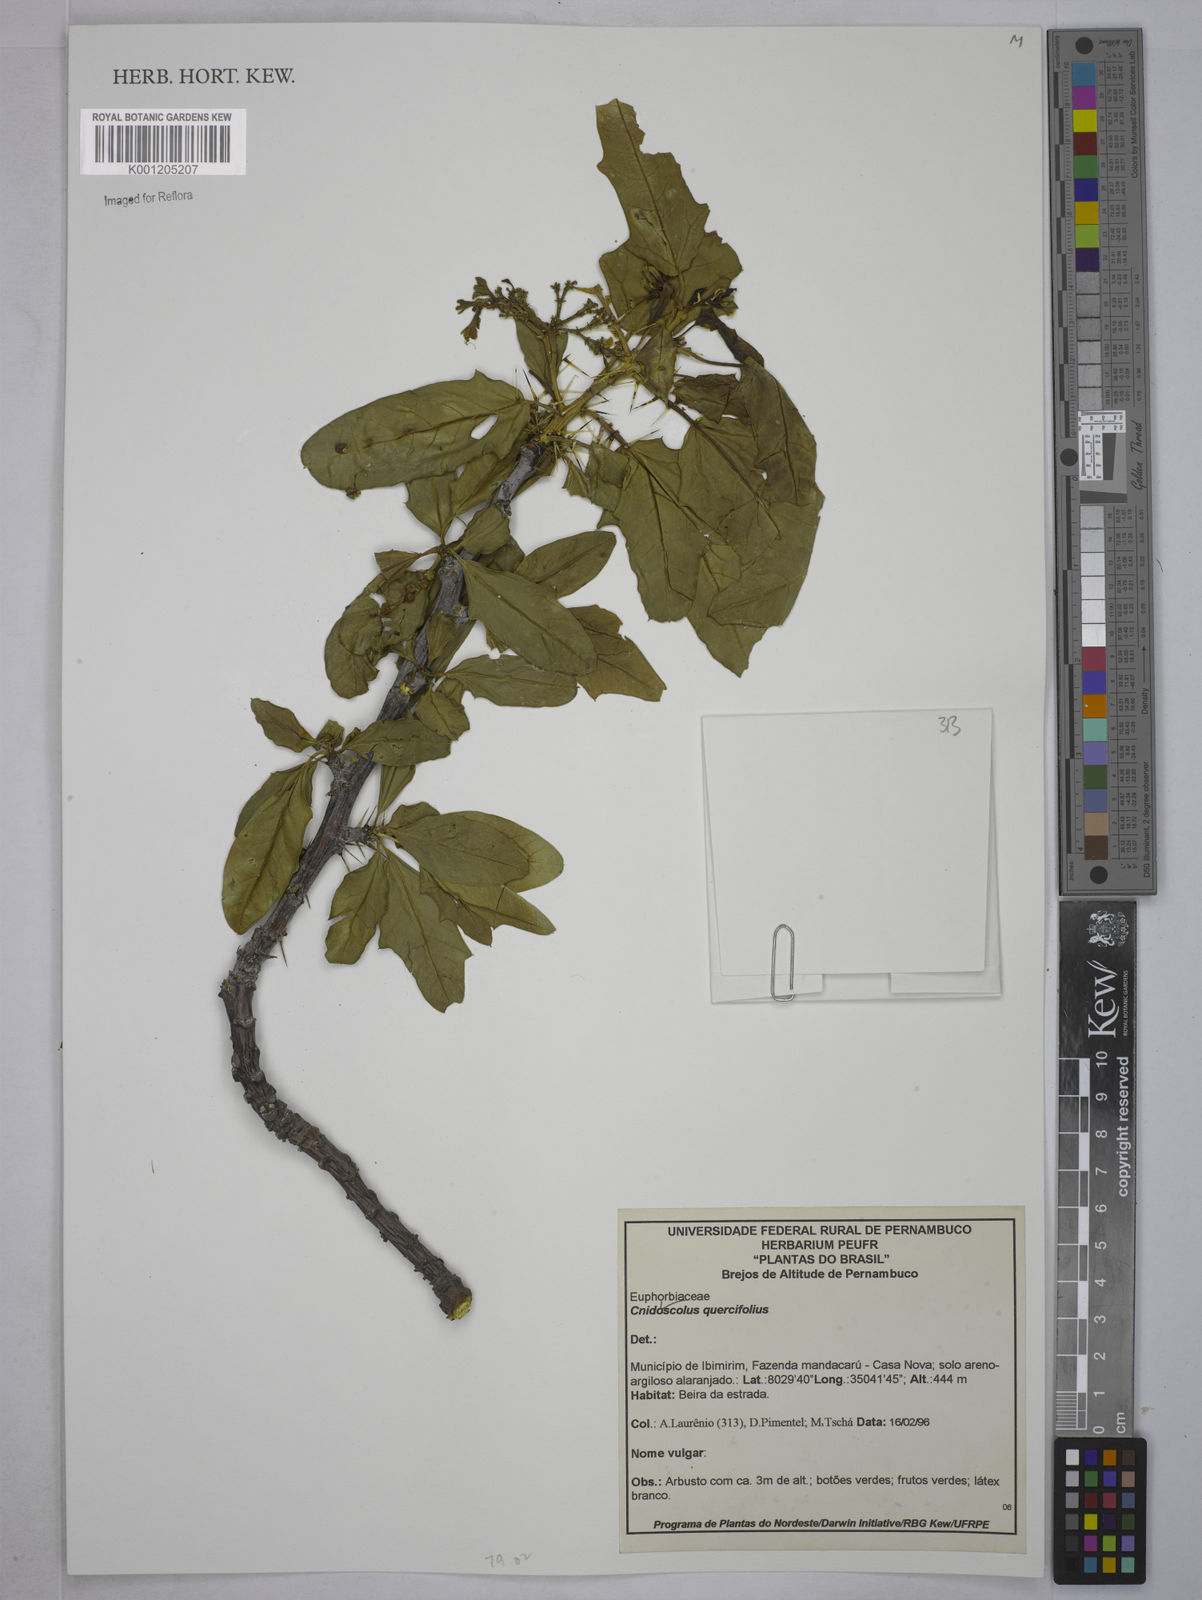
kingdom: Plantae
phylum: Tracheophyta
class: Magnoliopsida
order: Malpighiales
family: Euphorbiaceae
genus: Cnidoscolus
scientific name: Cnidoscolus quercifolius
